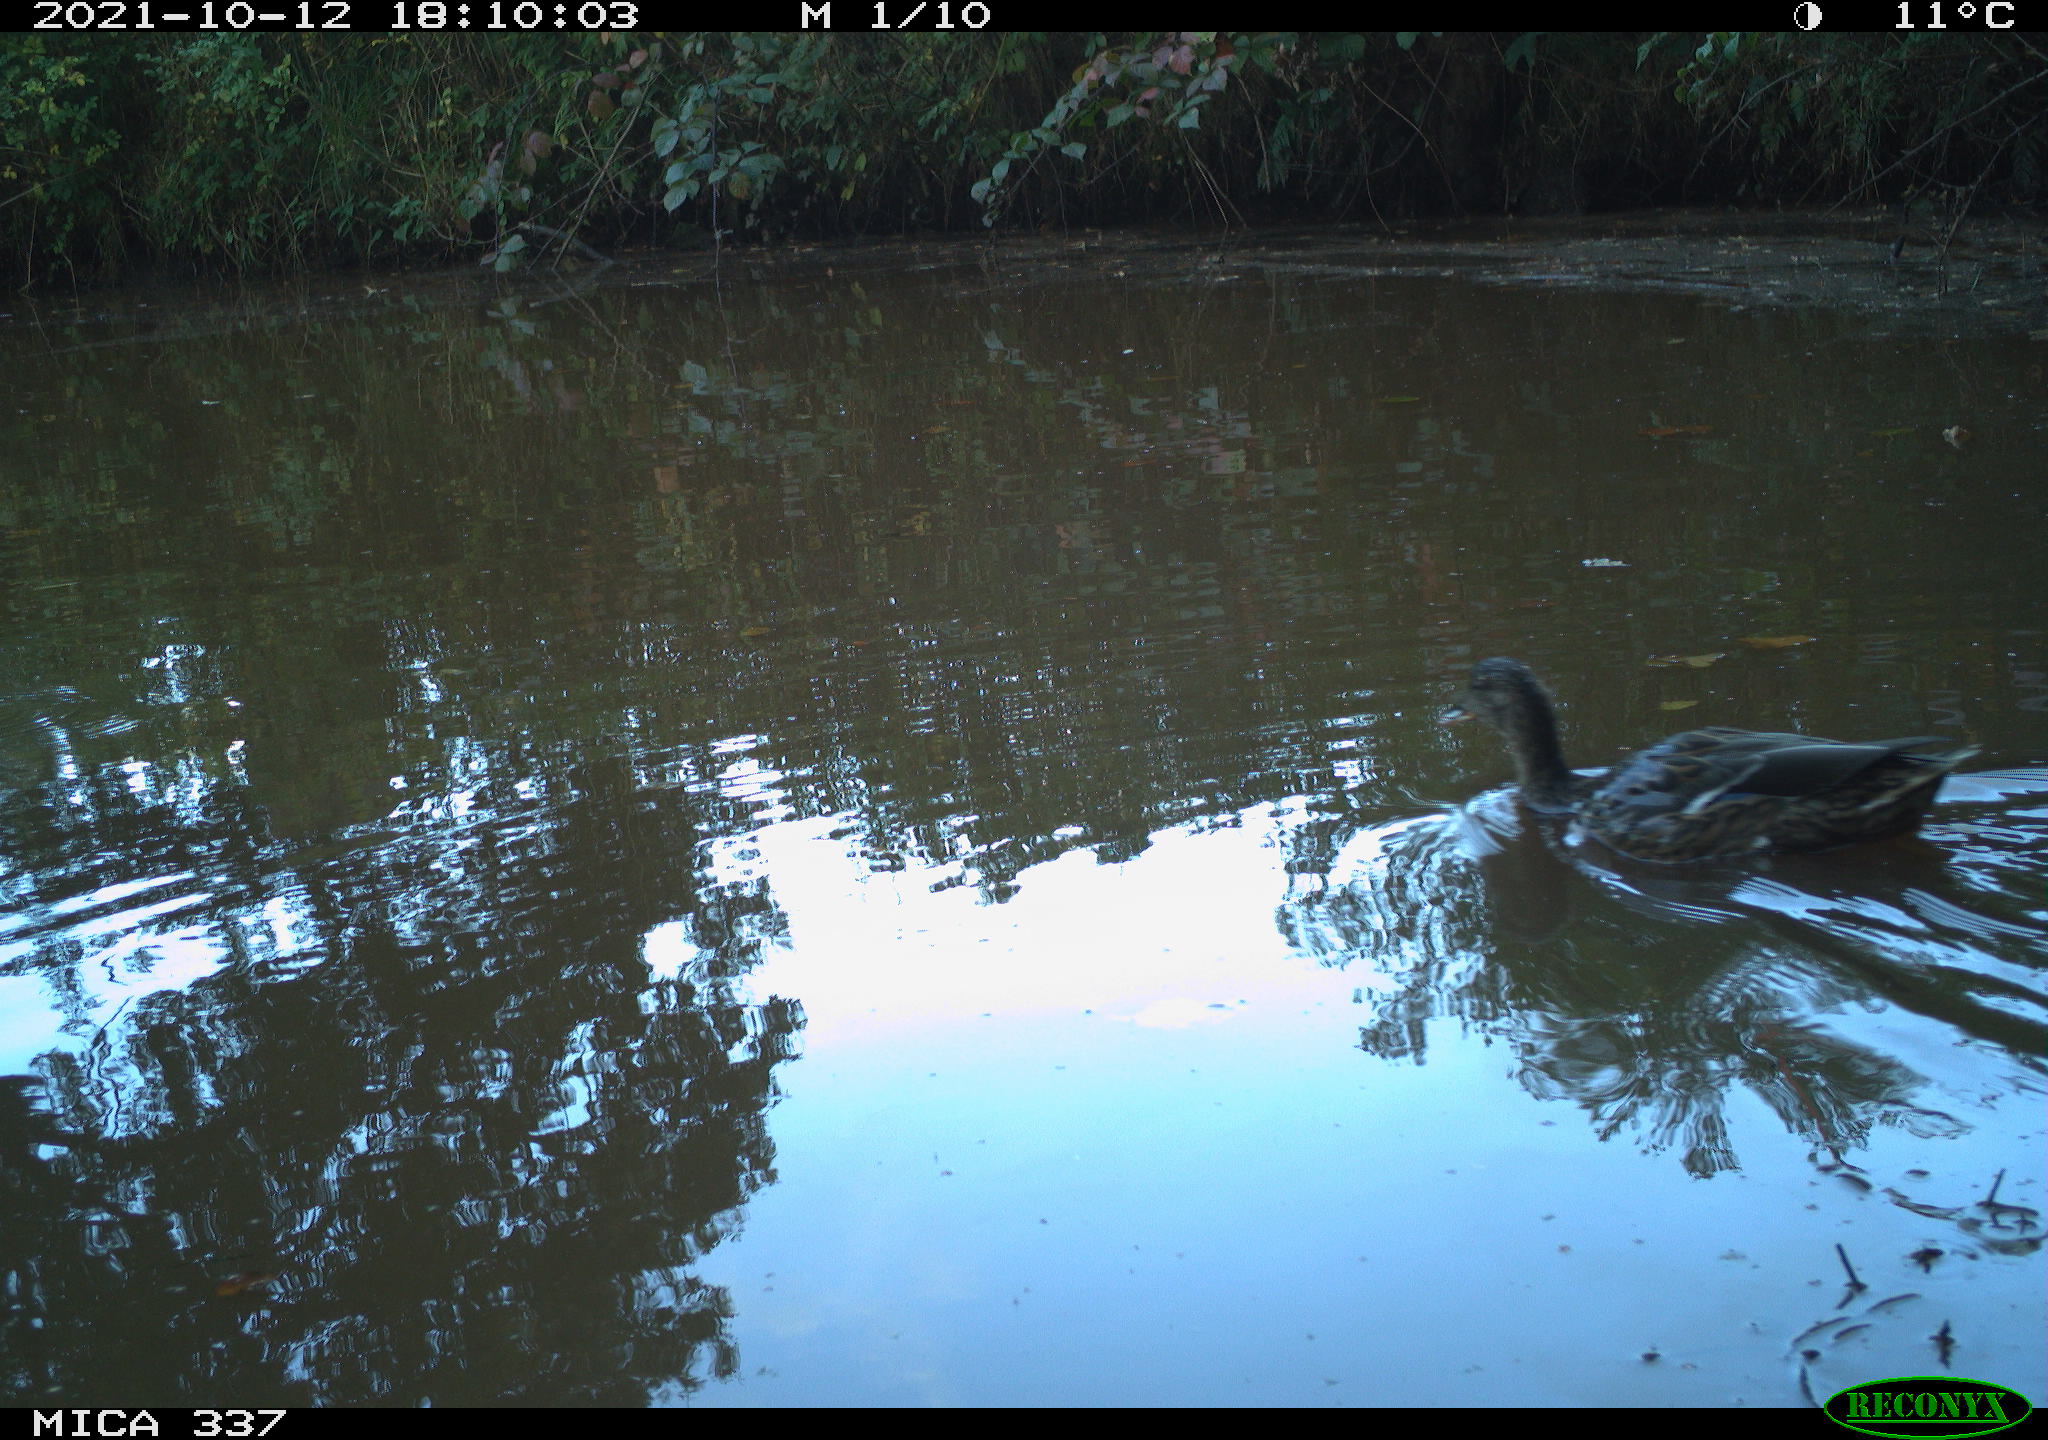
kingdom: Animalia
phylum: Chordata
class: Aves
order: Anseriformes
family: Anatidae
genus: Anas
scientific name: Anas platyrhynchos
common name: Mallard
